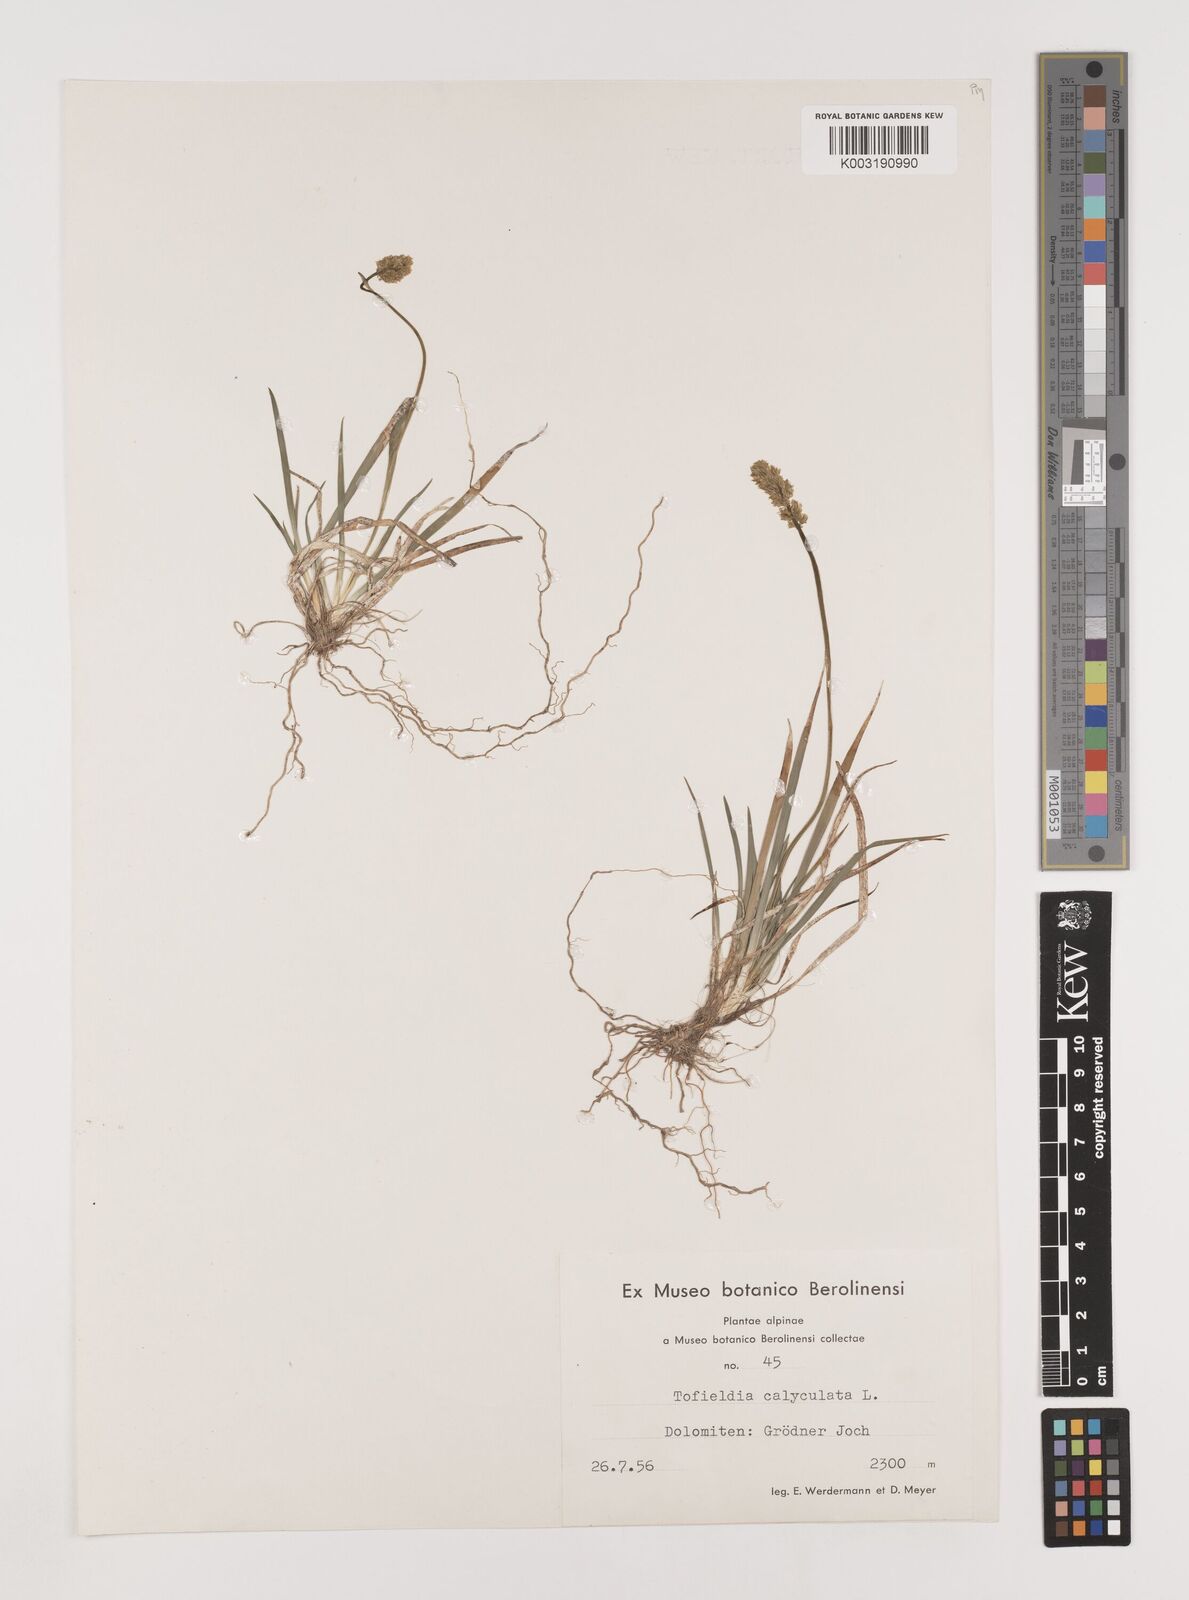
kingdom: Plantae
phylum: Tracheophyta
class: Liliopsida
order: Alismatales
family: Tofieldiaceae
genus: Tofieldia
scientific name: Tofieldia calyculata
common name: German-asphodel
